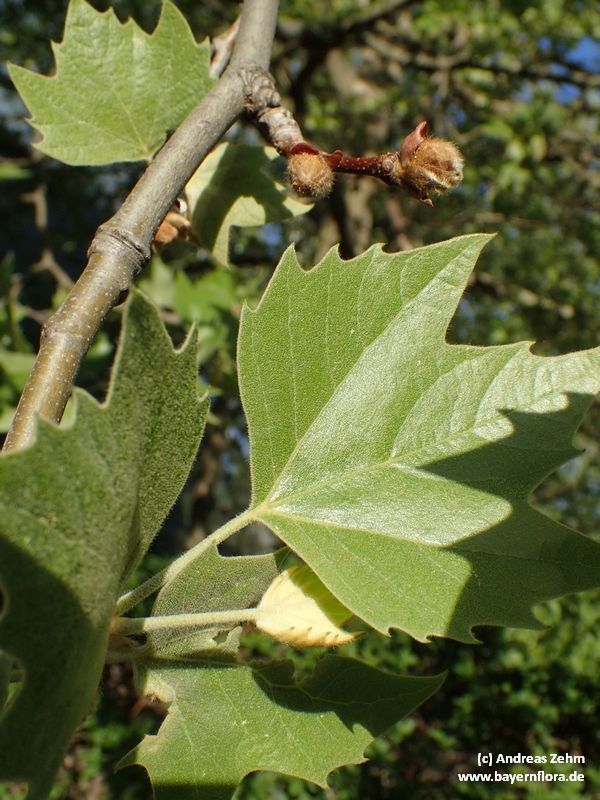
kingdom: Plantae
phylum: Tracheophyta
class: Magnoliopsida
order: Ranunculales
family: Papaveraceae
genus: Platanus
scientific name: Platanus
